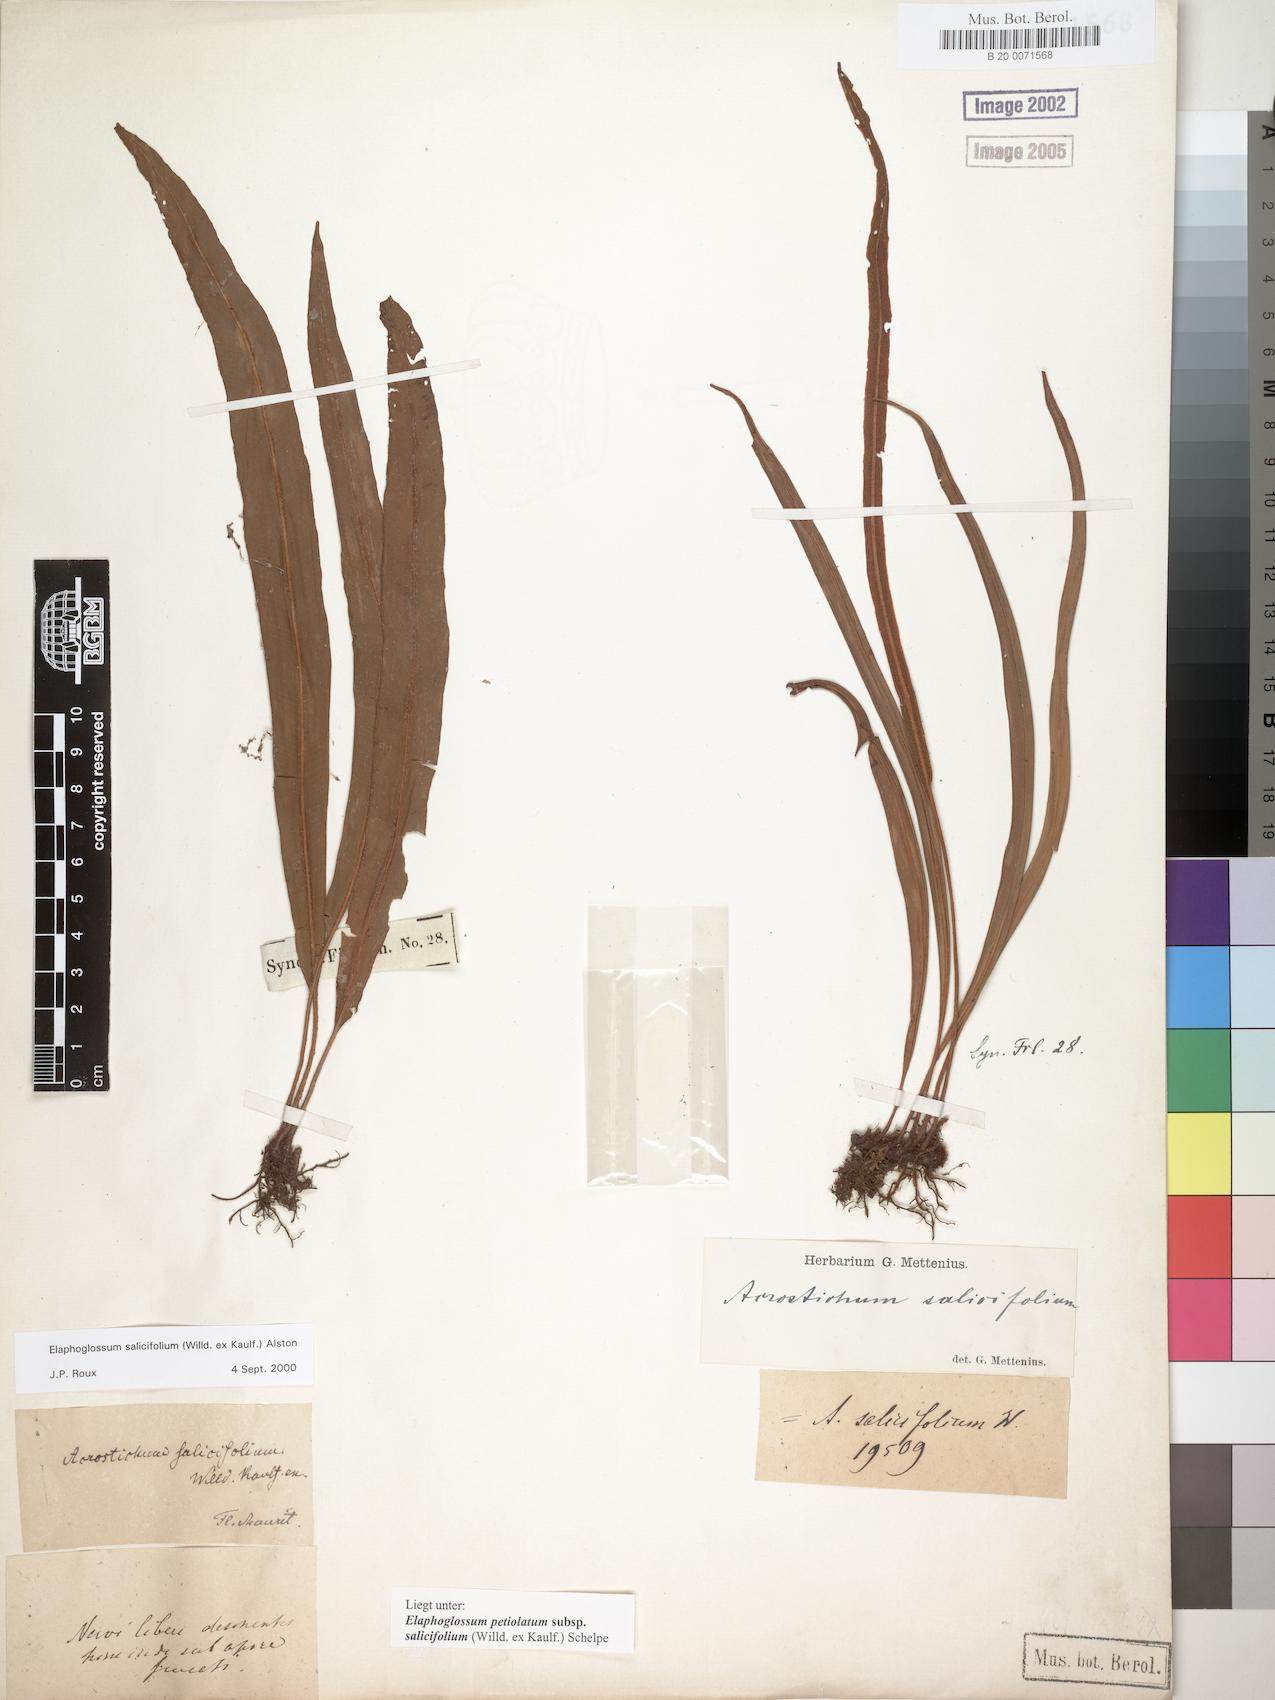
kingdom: Plantae
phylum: Tracheophyta
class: Polypodiopsida
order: Polypodiales
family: Dryopteridaceae
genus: Elaphoglossum
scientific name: Elaphoglossum lancifolium
